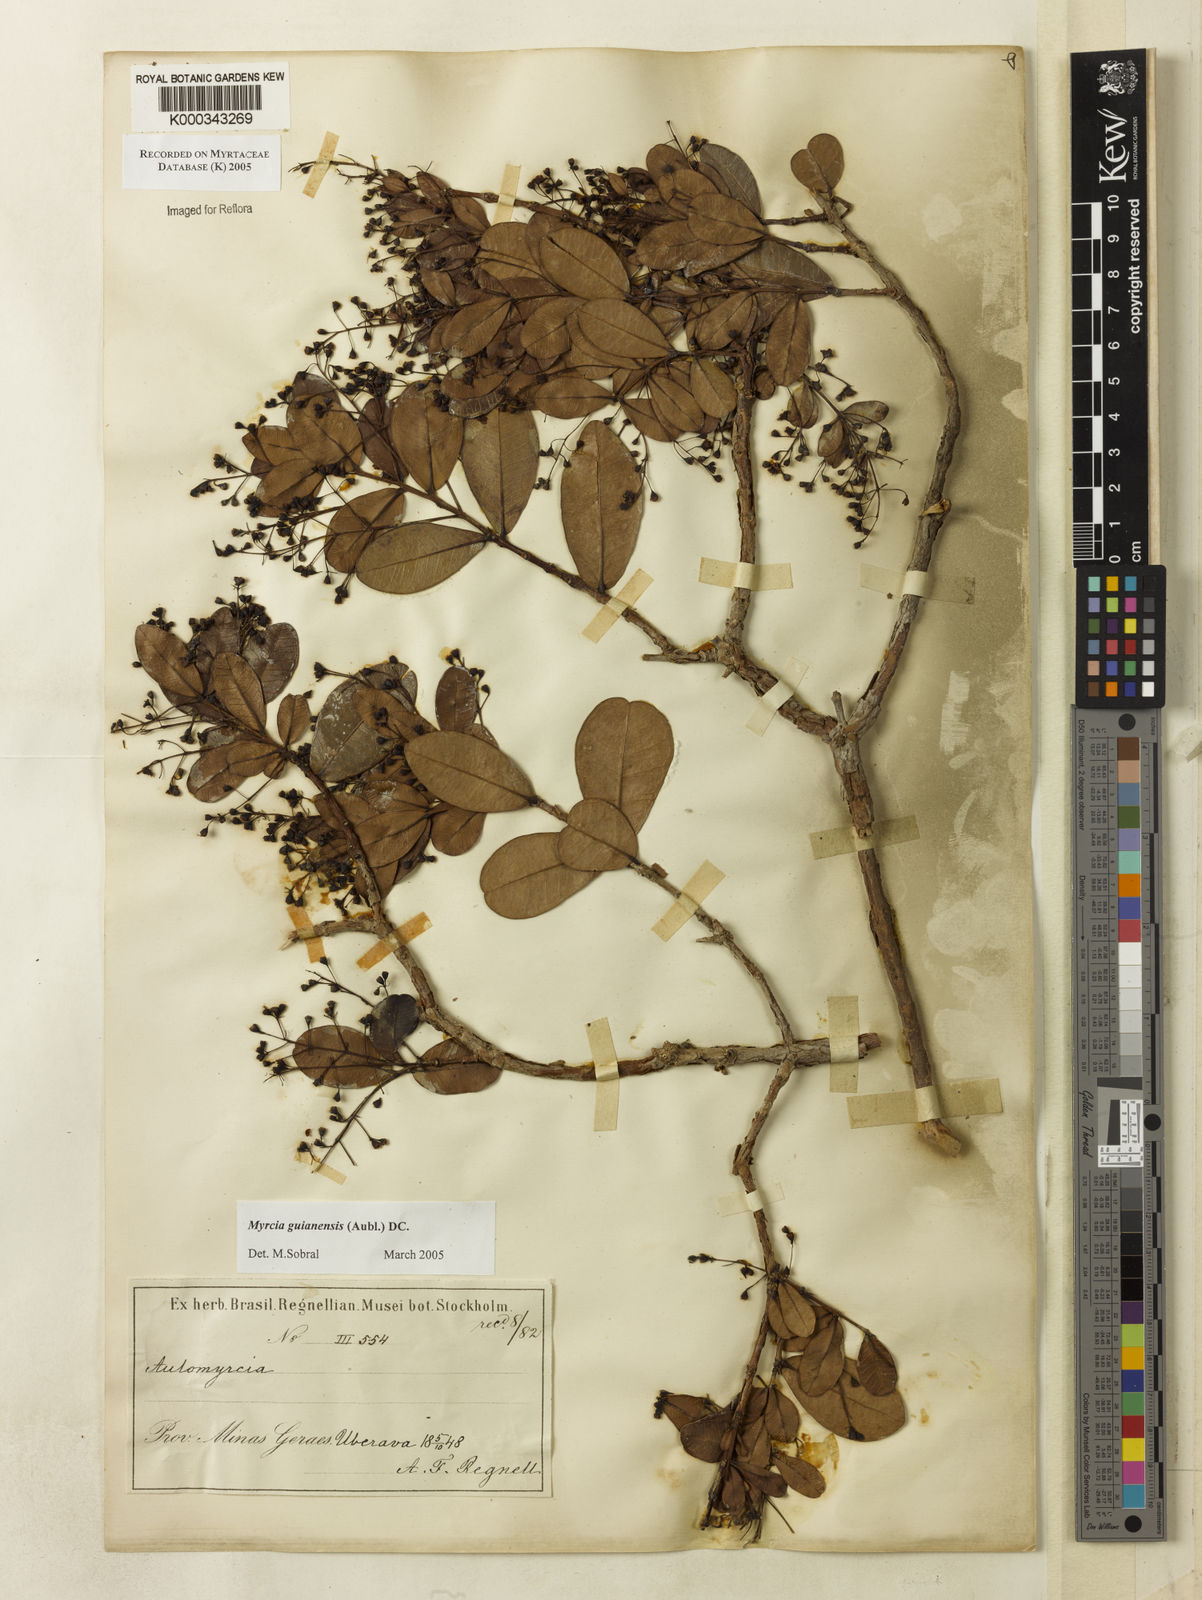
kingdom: Plantae
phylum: Tracheophyta
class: Magnoliopsida
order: Myrtales
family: Myrtaceae
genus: Myrcia
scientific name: Myrcia guianensis
